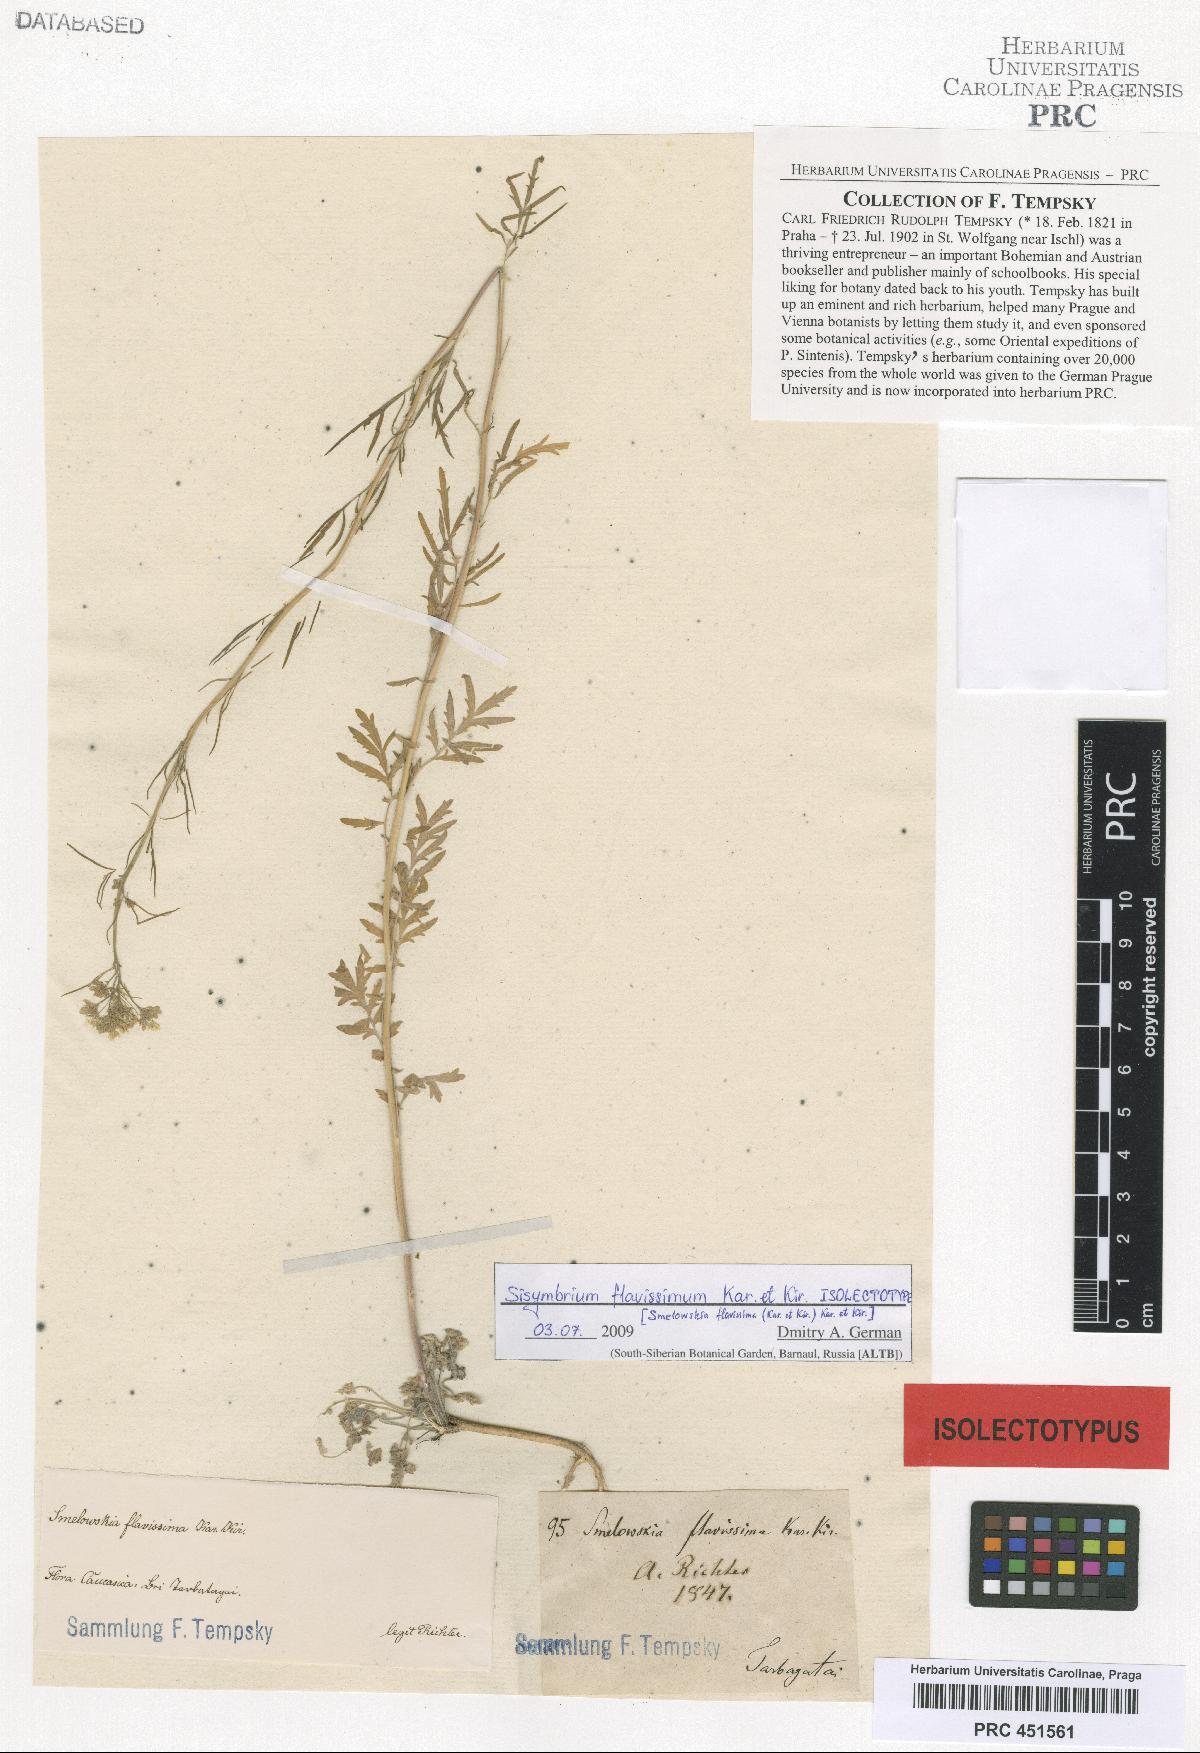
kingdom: Plantae
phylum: Tracheophyta
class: Magnoliopsida
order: Brassicales
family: Brassicaceae
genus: Smelowskia
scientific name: Smelowskia flavissima
